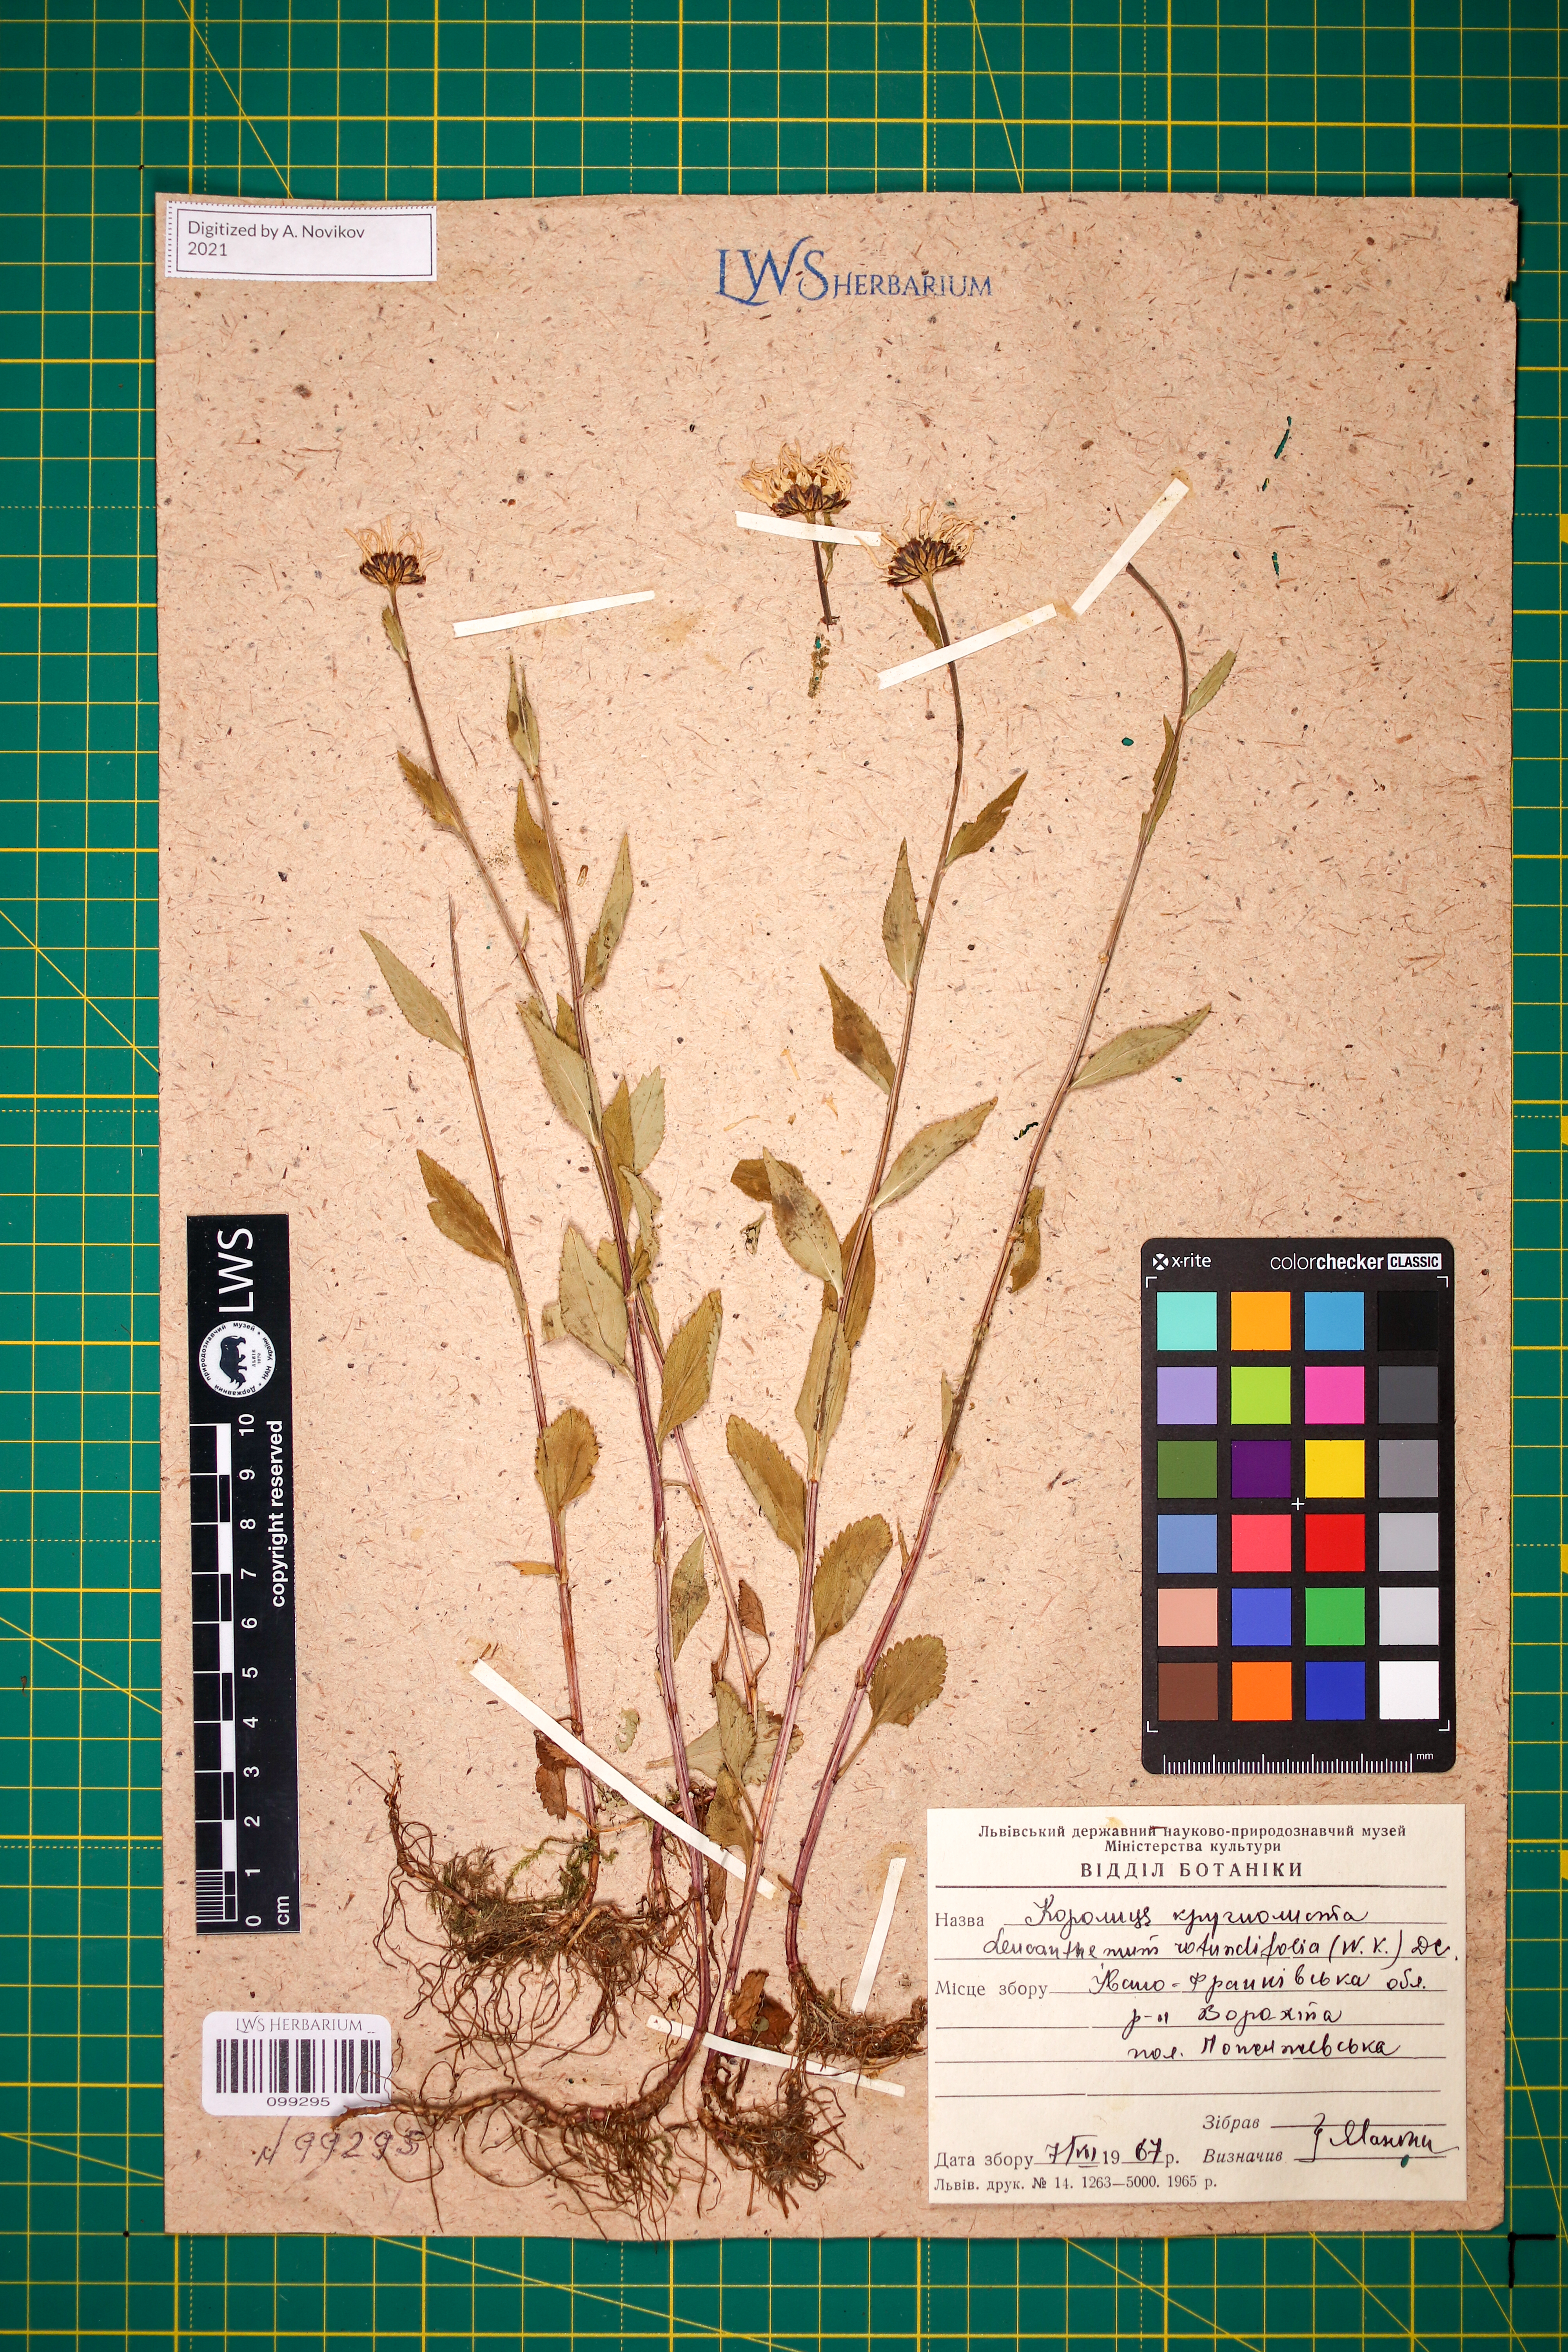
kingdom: Plantae
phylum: Tracheophyta
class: Magnoliopsida
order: Asterales
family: Asteraceae
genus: Leucanthemum
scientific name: Leucanthemum rotundifolium
